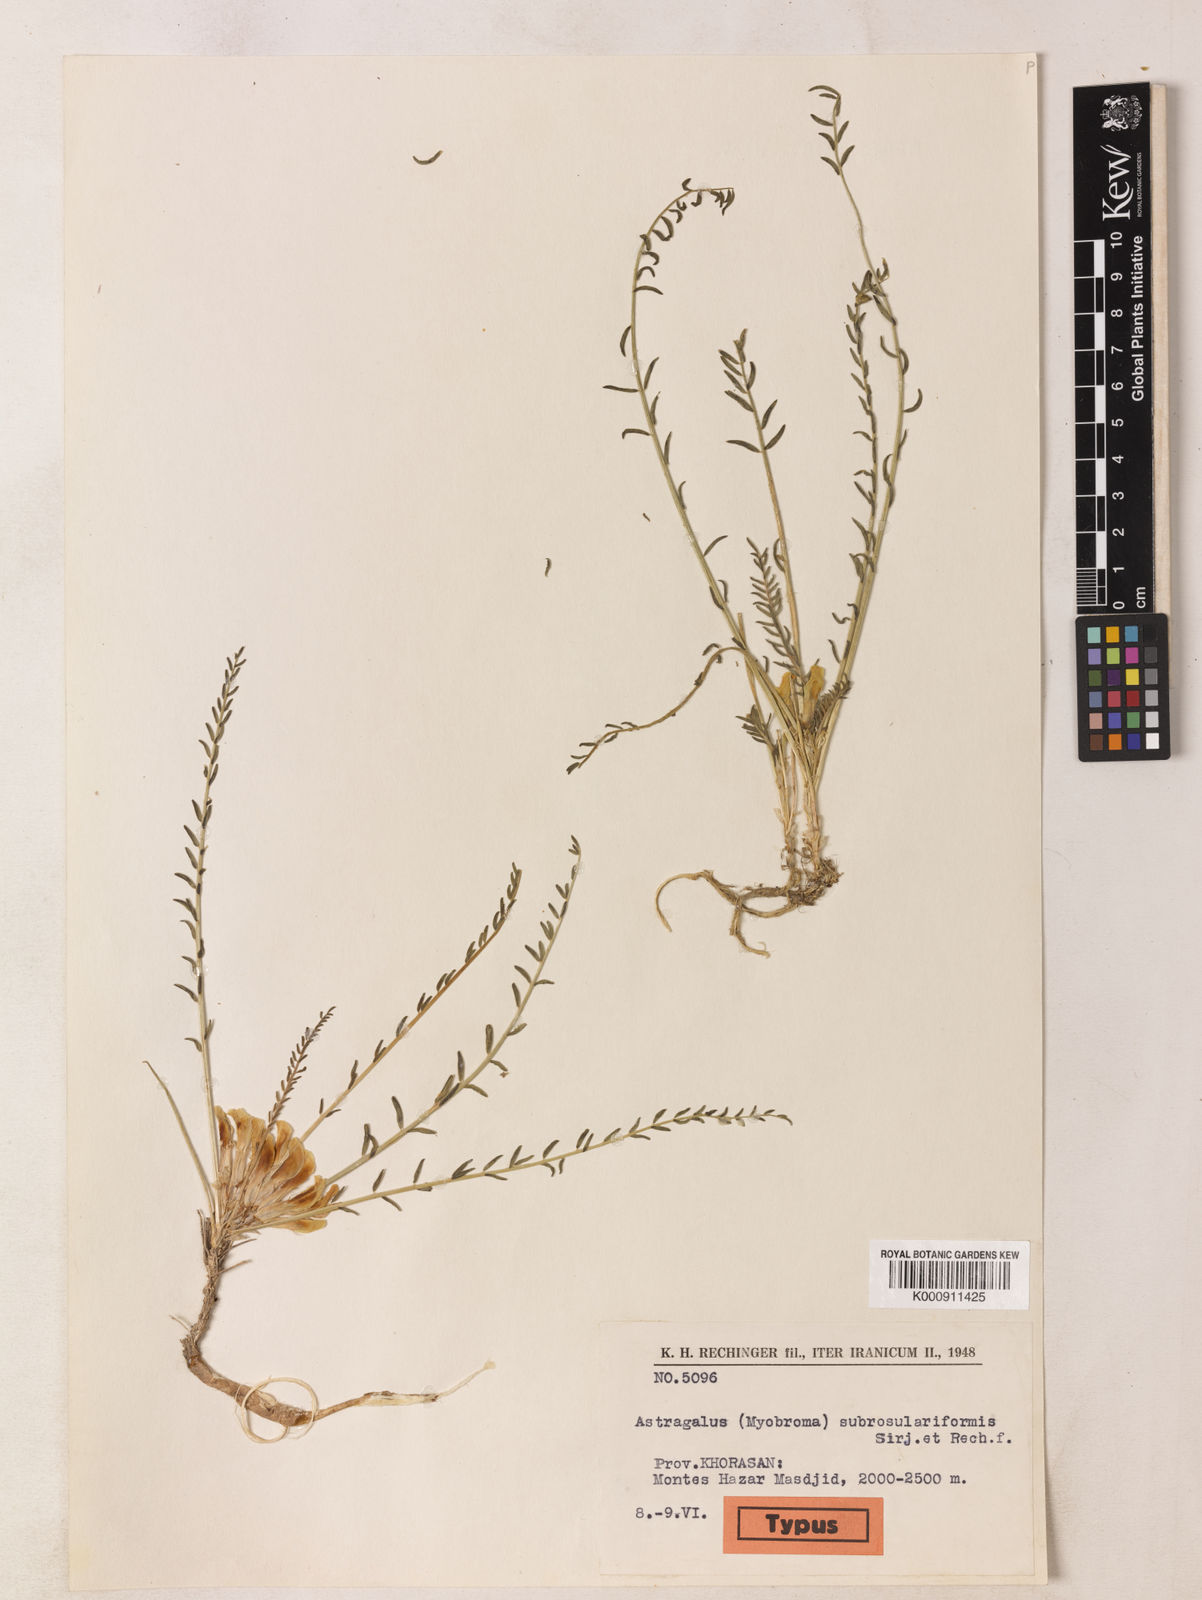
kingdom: Plantae
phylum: Tracheophyta
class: Magnoliopsida
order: Fabales
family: Fabaceae
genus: Astragalus
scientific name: Astragalus subrosulariformis
